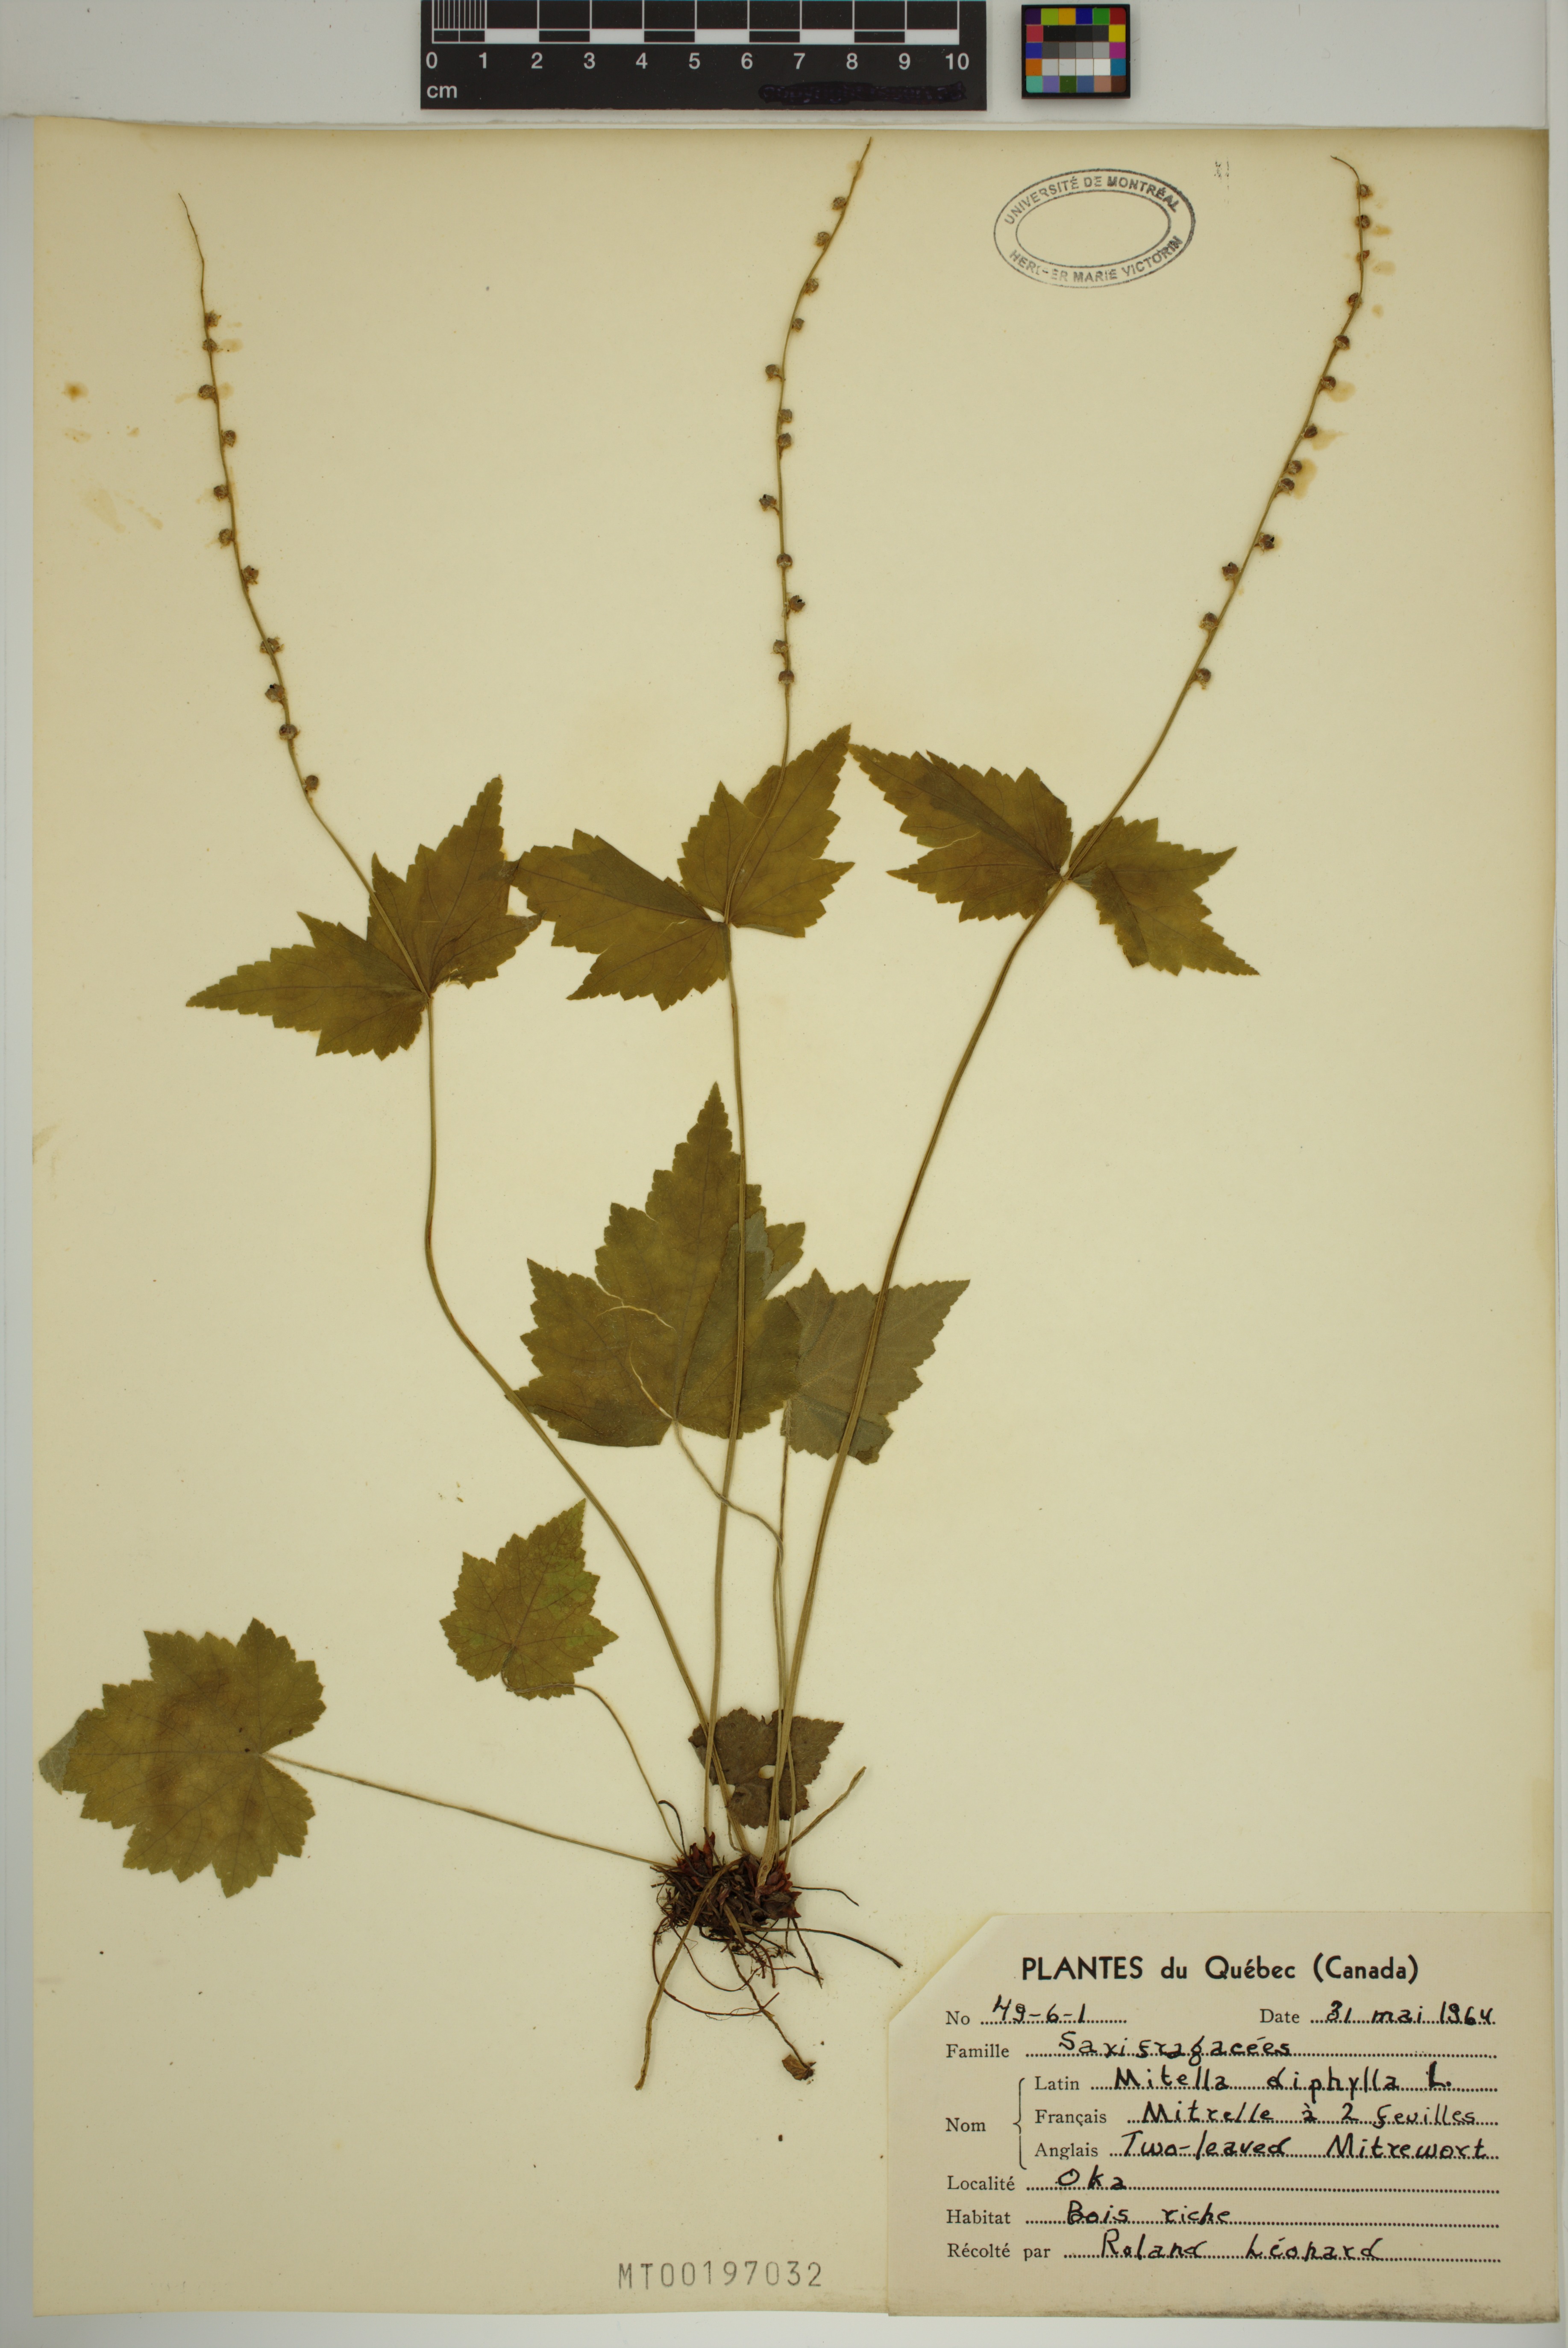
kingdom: Plantae
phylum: Tracheophyta
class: Magnoliopsida
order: Saxifragales
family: Saxifragaceae
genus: Mitella
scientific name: Mitella diphylla
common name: Coolwort
